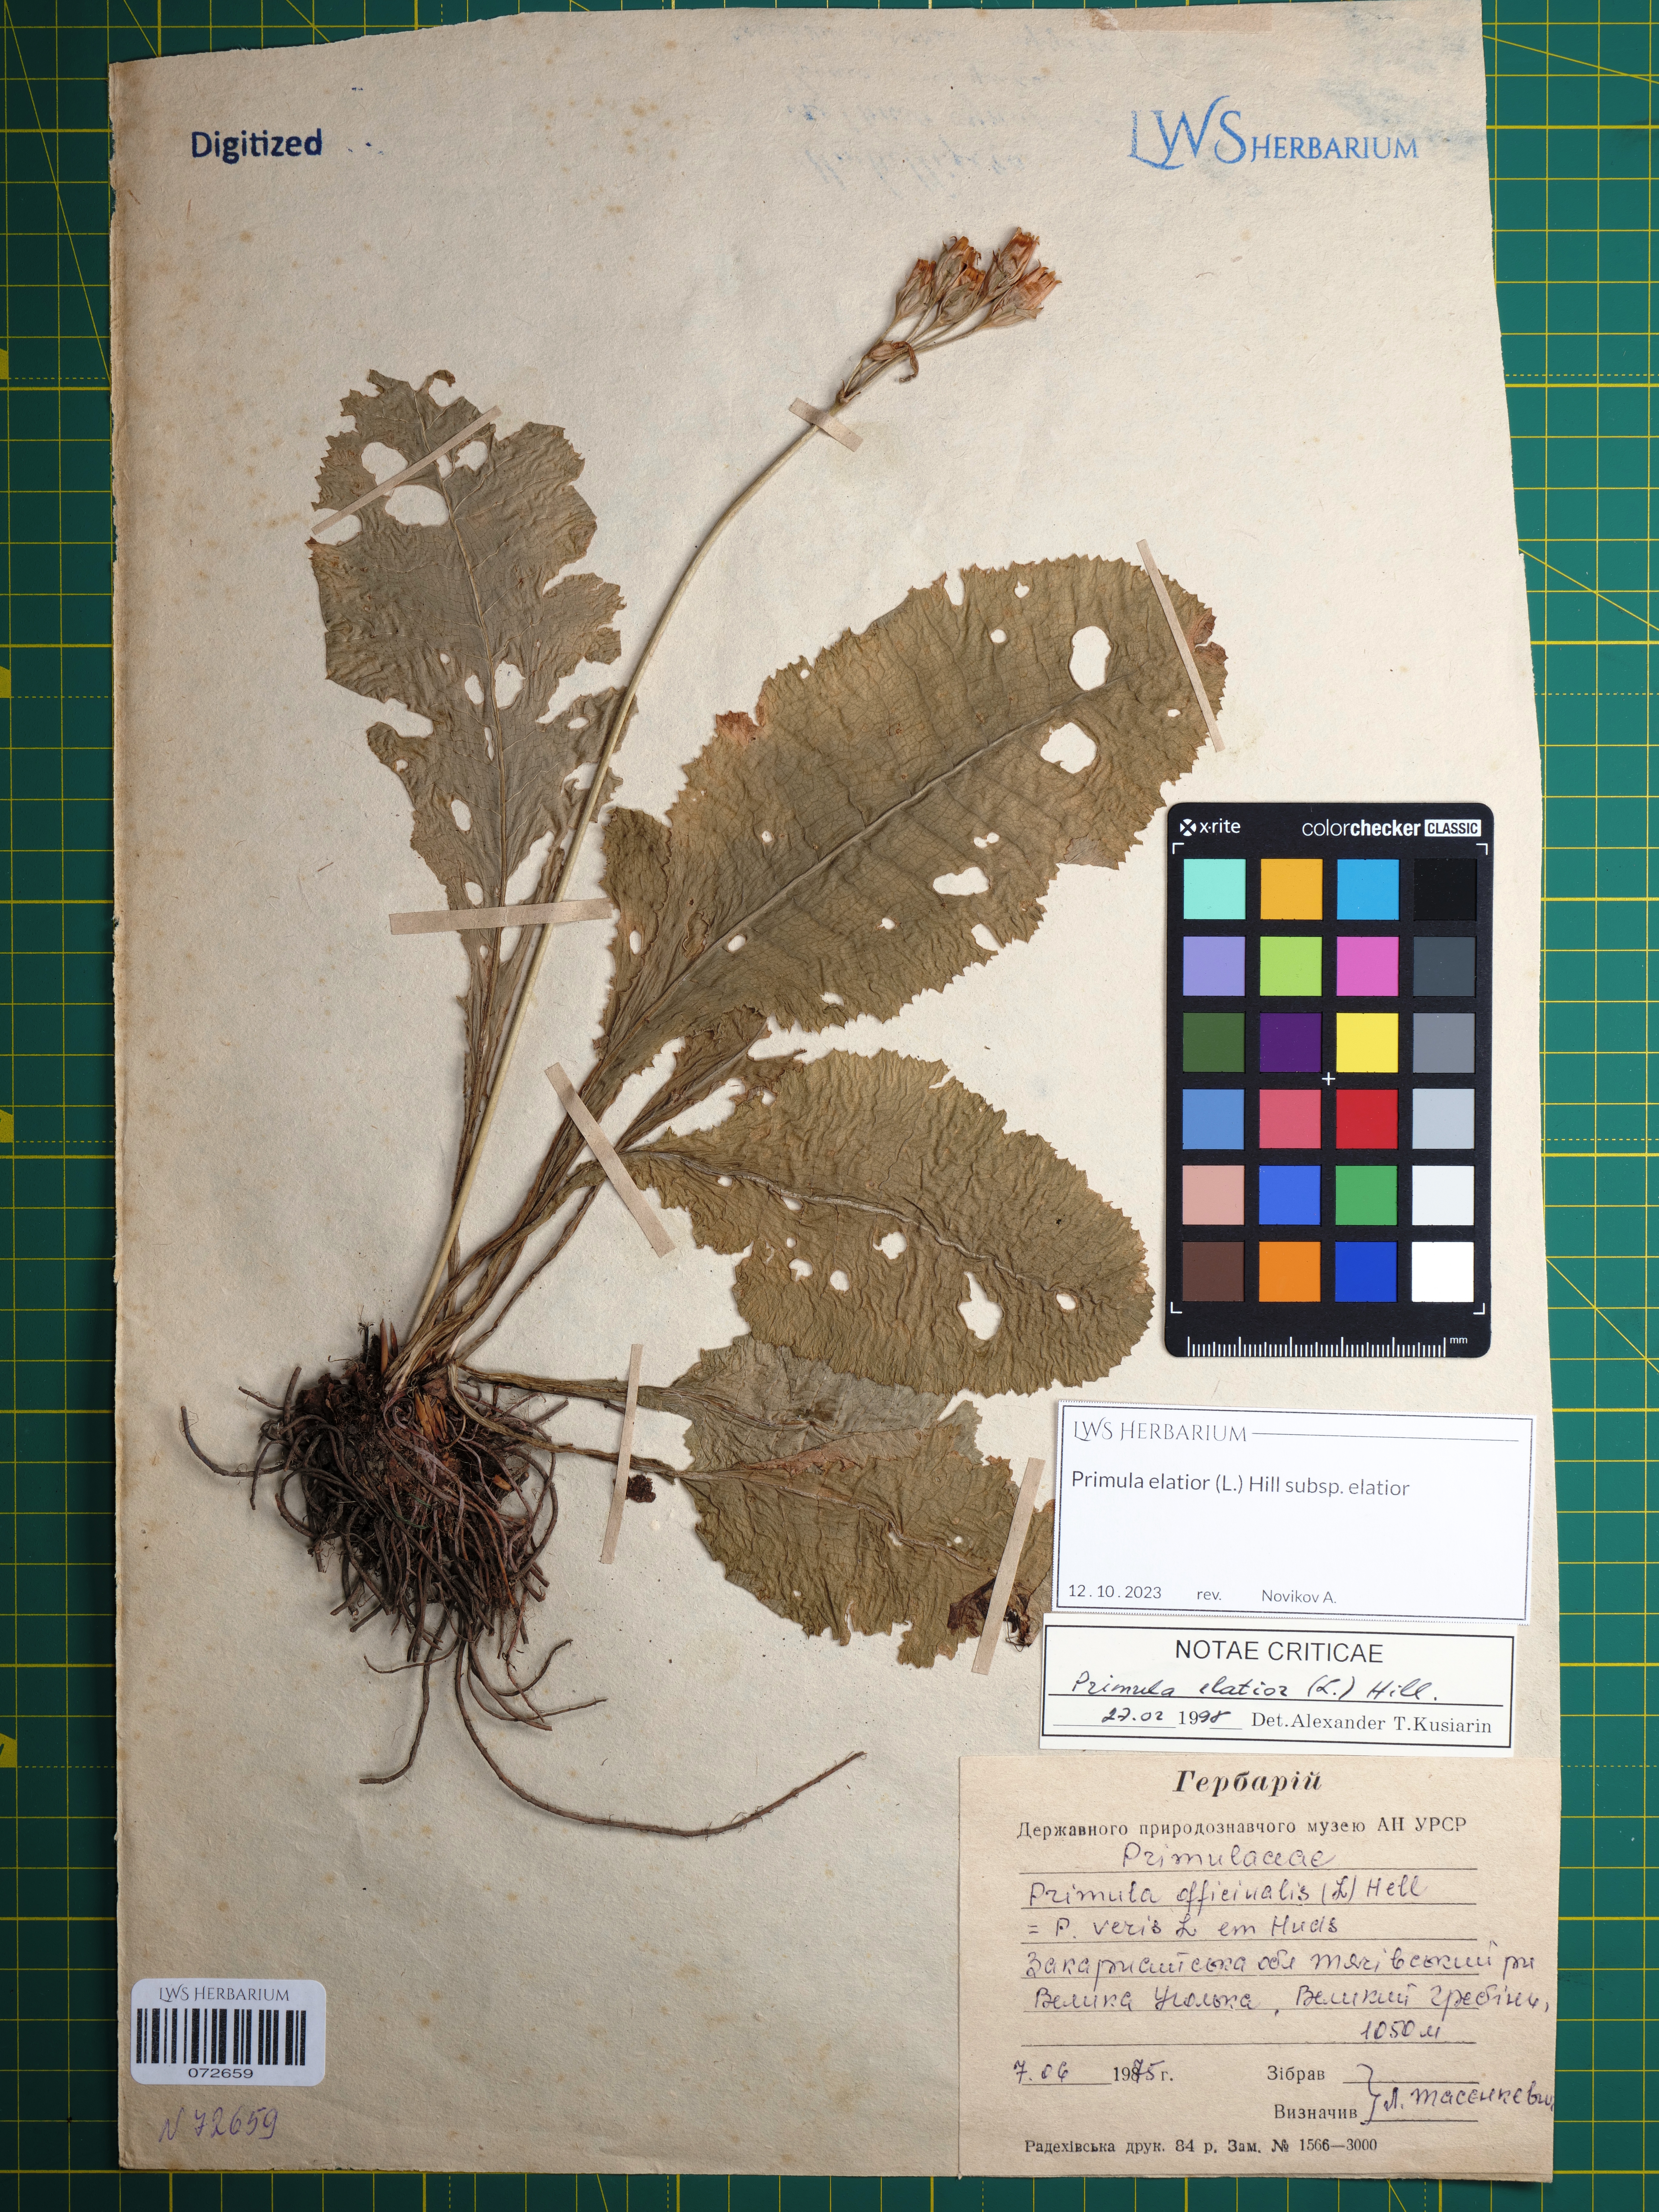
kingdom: Plantae
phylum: Tracheophyta
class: Magnoliopsida
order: Ericales
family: Primulaceae
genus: Primula
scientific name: Primula elatior
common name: Oxlip
